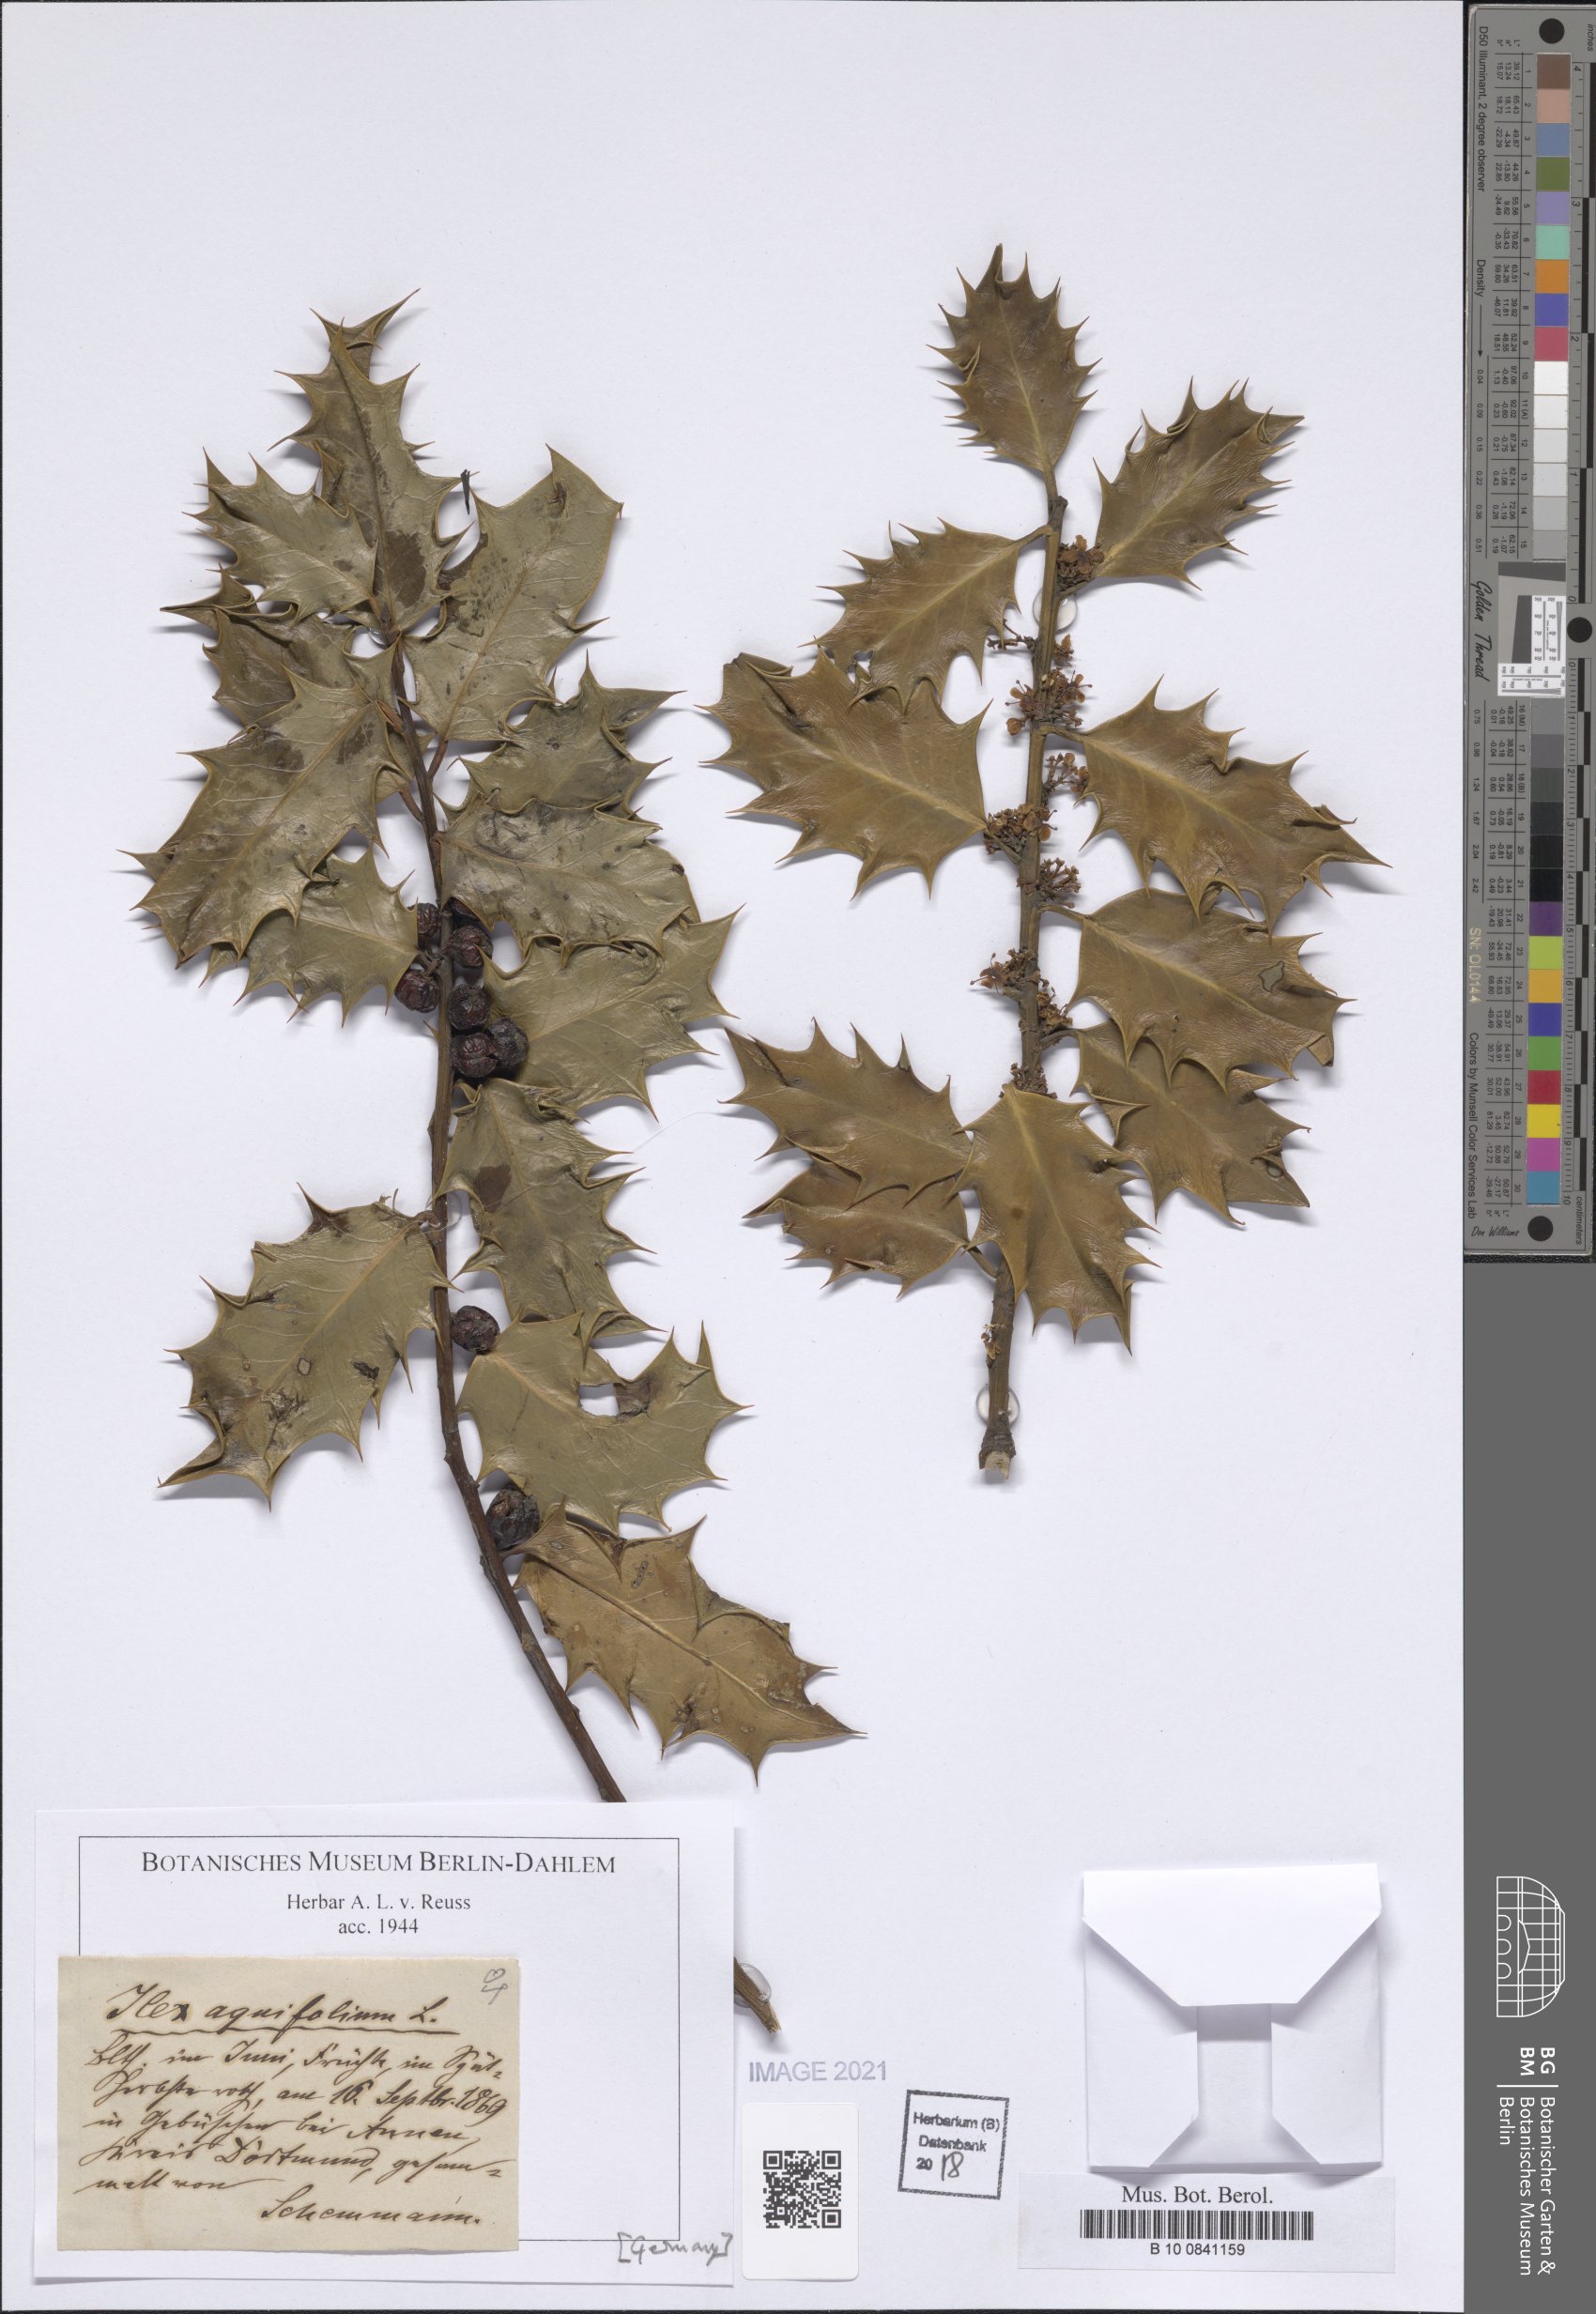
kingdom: Plantae
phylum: Tracheophyta
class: Magnoliopsida
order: Aquifoliales
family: Aquifoliaceae
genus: Ilex
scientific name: Ilex aquifolium
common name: English holly
